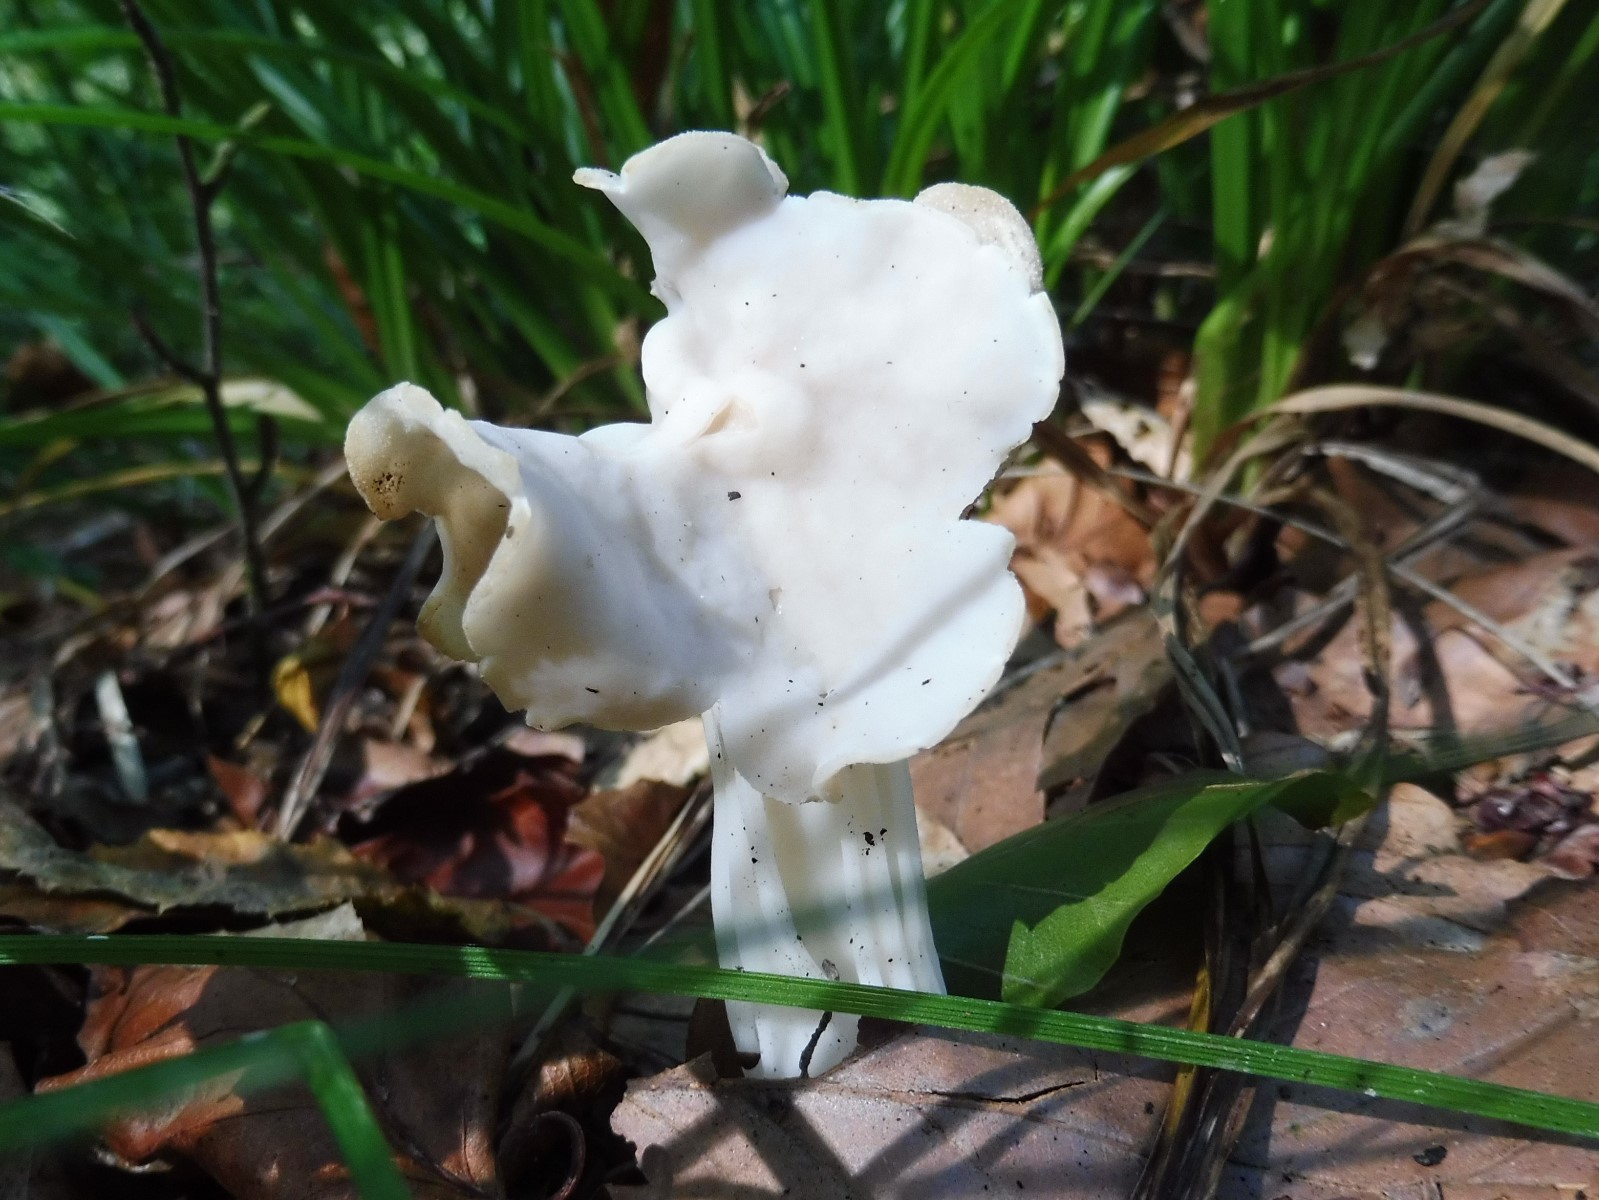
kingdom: Fungi
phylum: Ascomycota
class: Pezizomycetes
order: Pezizales
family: Helvellaceae
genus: Helvella
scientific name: Helvella crispa
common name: kruset foldhat
